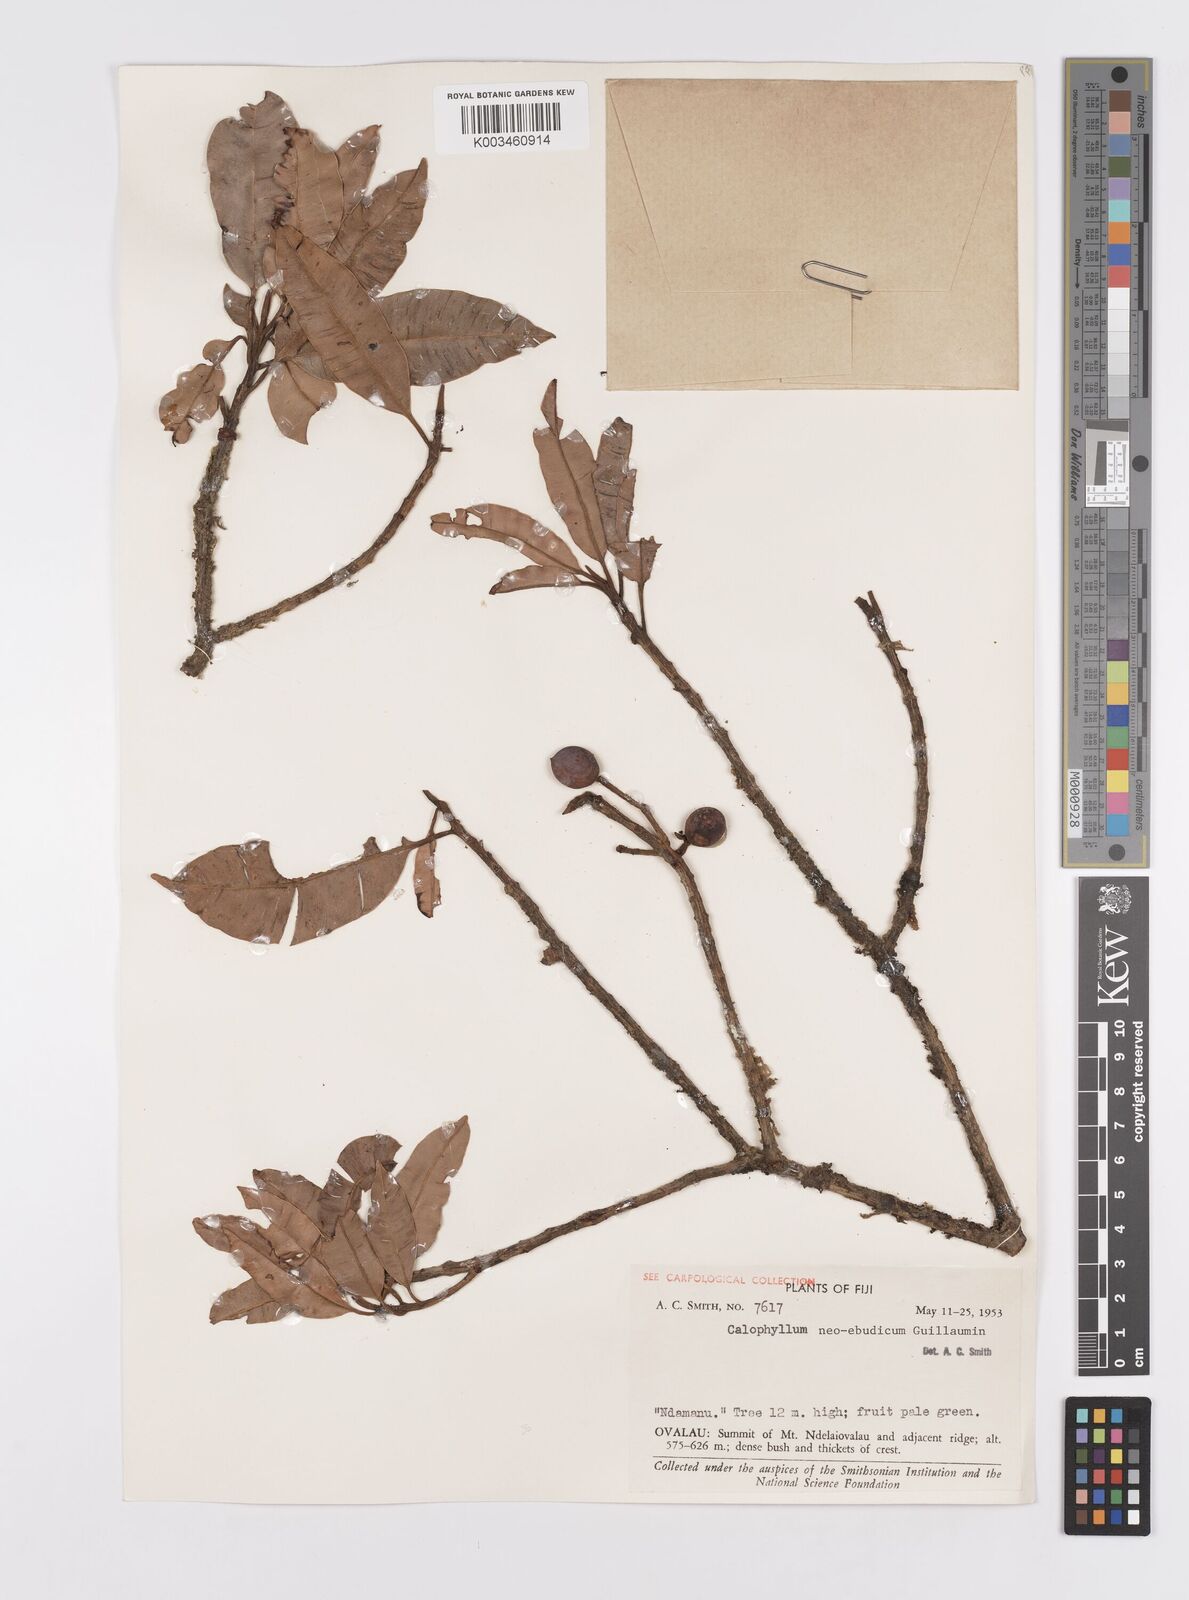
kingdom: Plantae
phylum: Tracheophyta
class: Magnoliopsida
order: Malpighiales
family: Calophyllaceae
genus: Calophyllum
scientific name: Calophyllum
